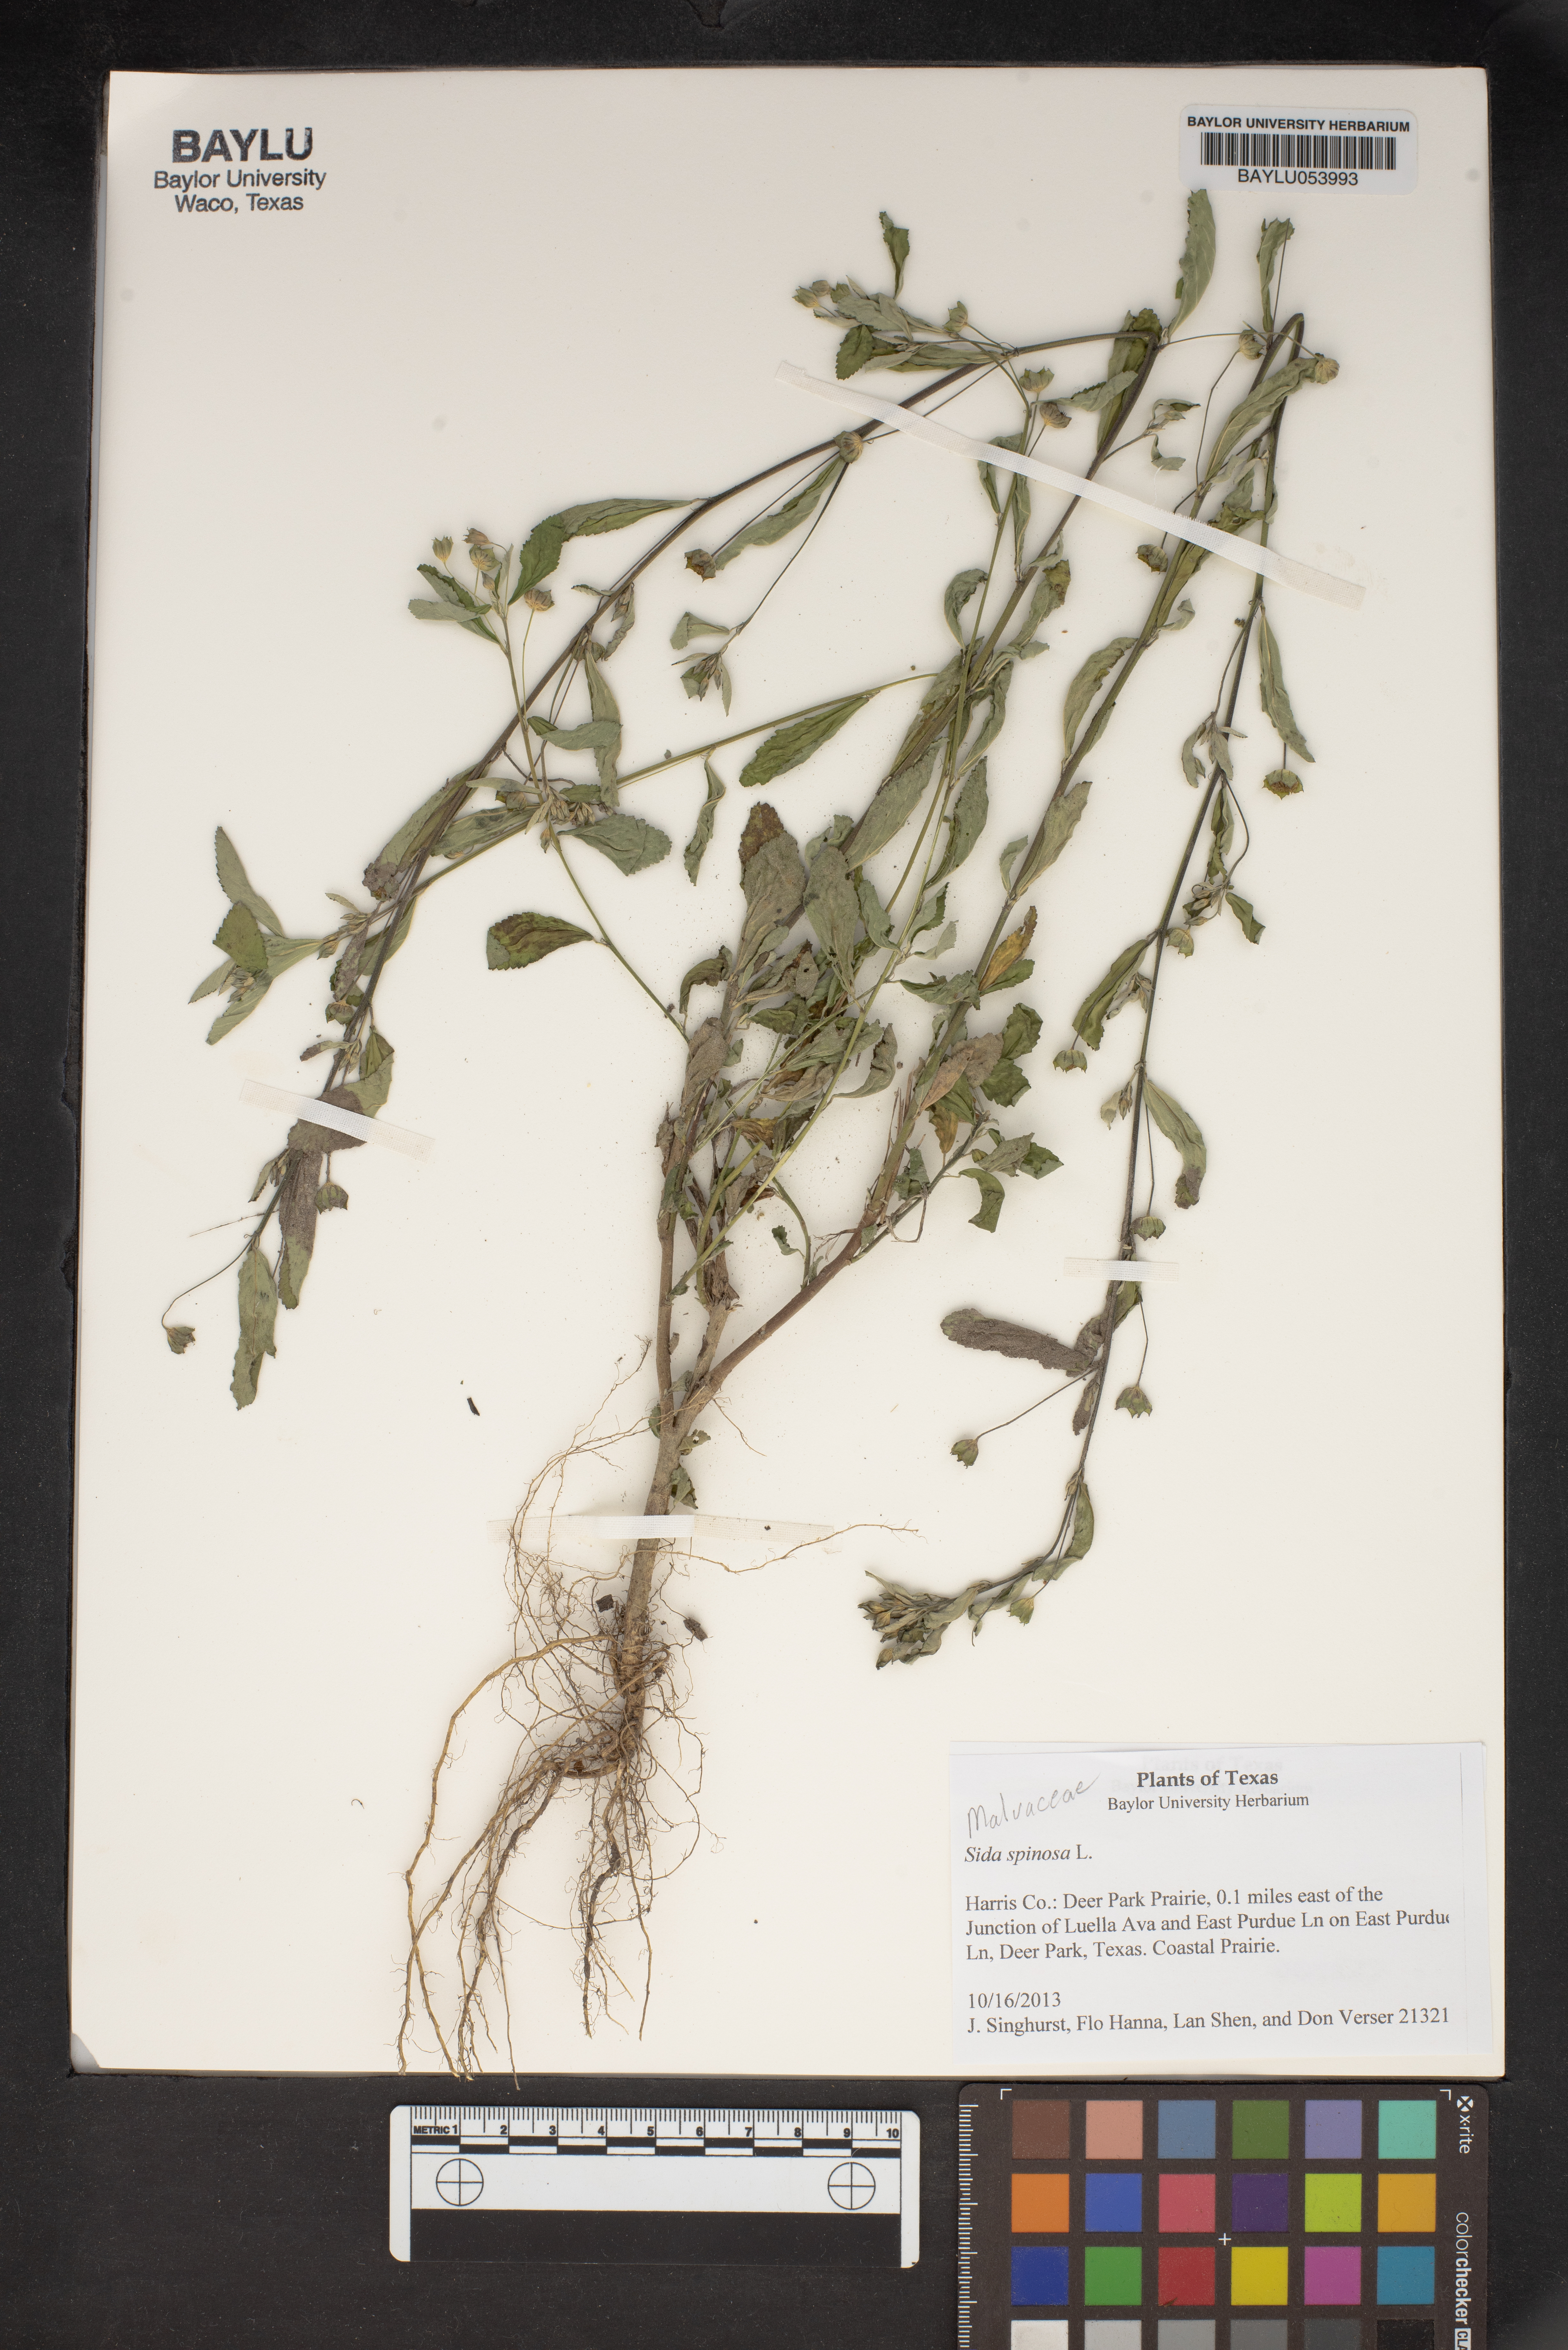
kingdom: Plantae
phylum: Tracheophyta
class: Magnoliopsida
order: Malvales
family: Malvaceae
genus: Sida
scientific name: Sida spinosa
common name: Prickly fanpetals
